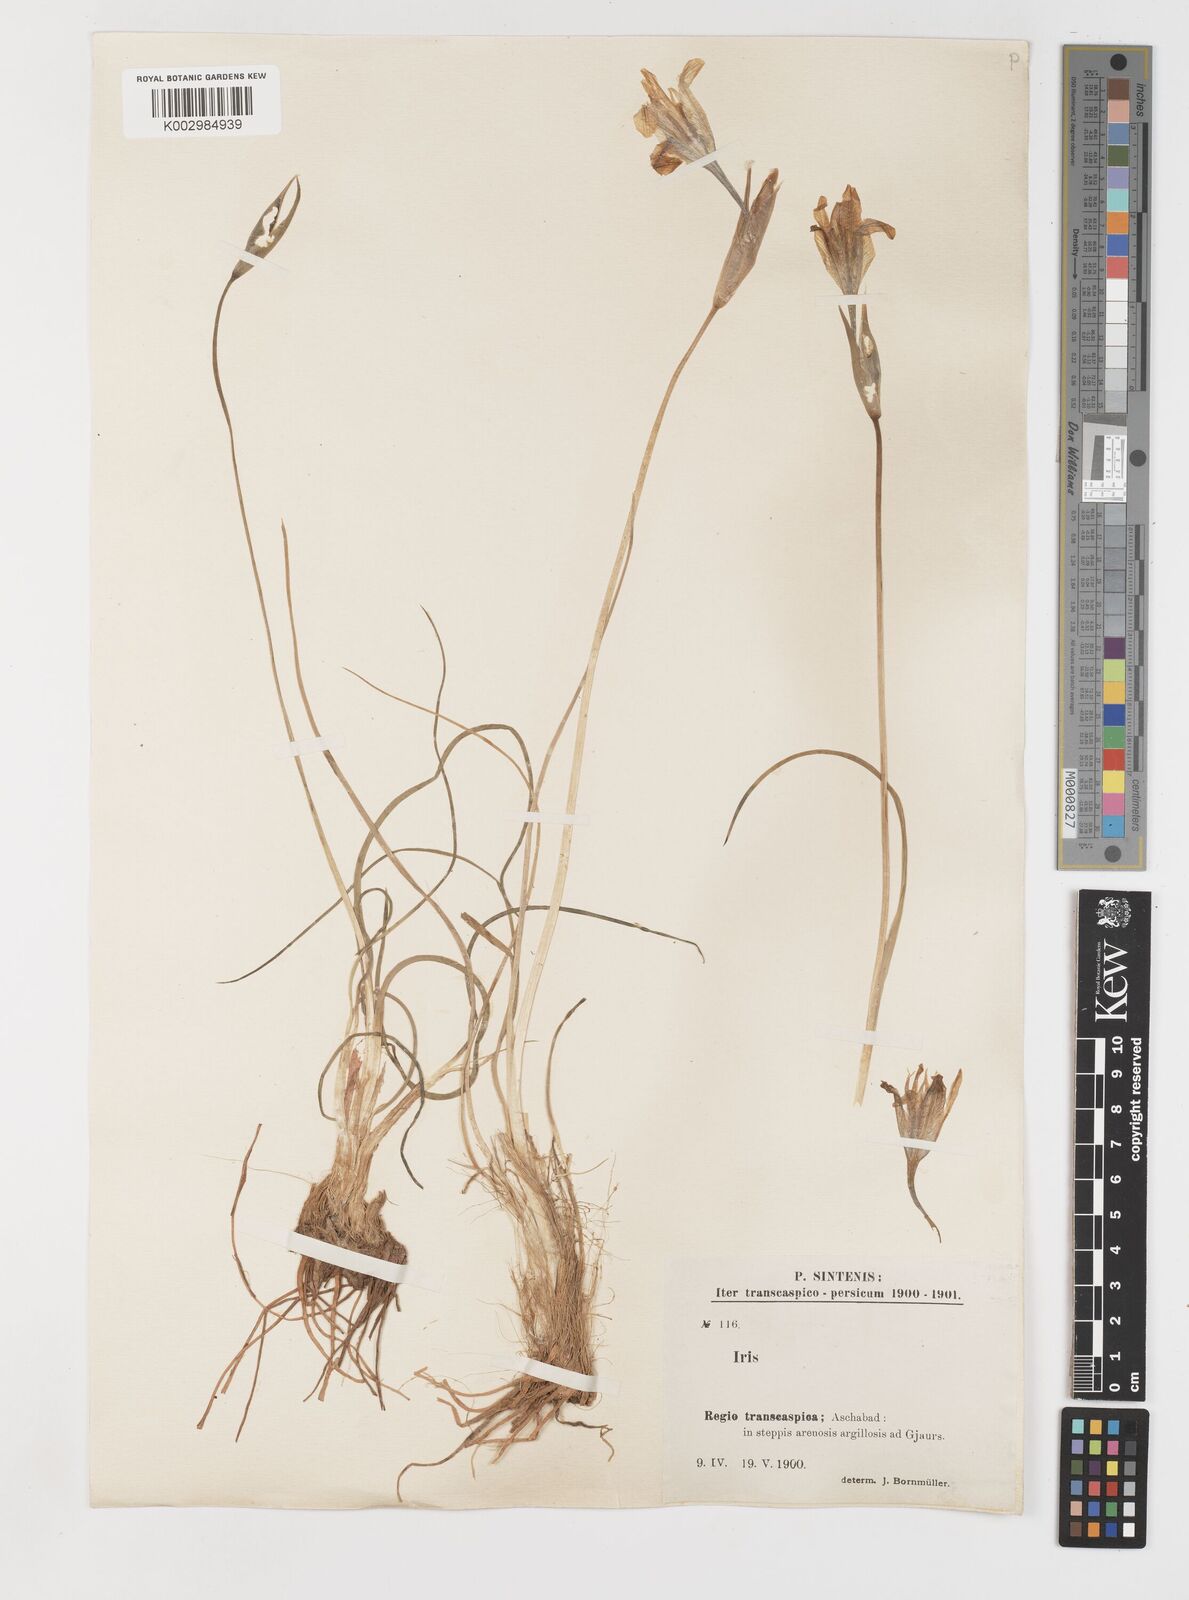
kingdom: Plantae
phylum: Tracheophyta
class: Liliopsida
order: Asparagales
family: Iridaceae
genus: Iris
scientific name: Iris longiscapa
